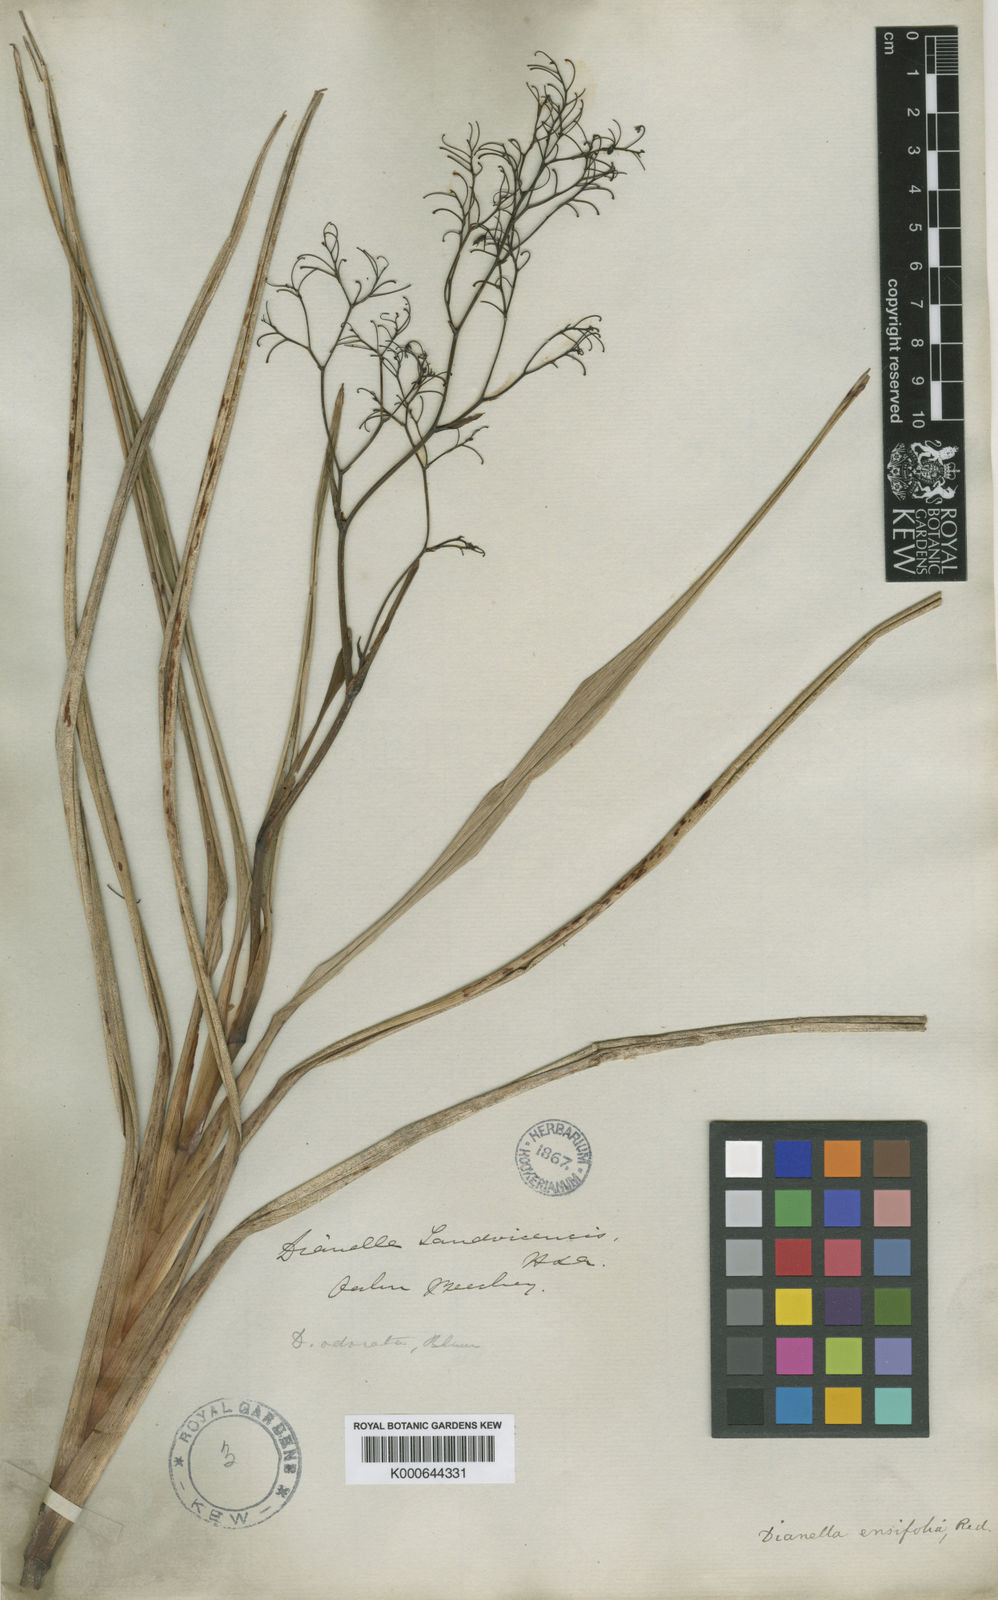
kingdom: Plantae
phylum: Tracheophyta
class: Liliopsida
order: Asparagales
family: Asphodelaceae
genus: Dianella
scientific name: Dianella sandwicensis
